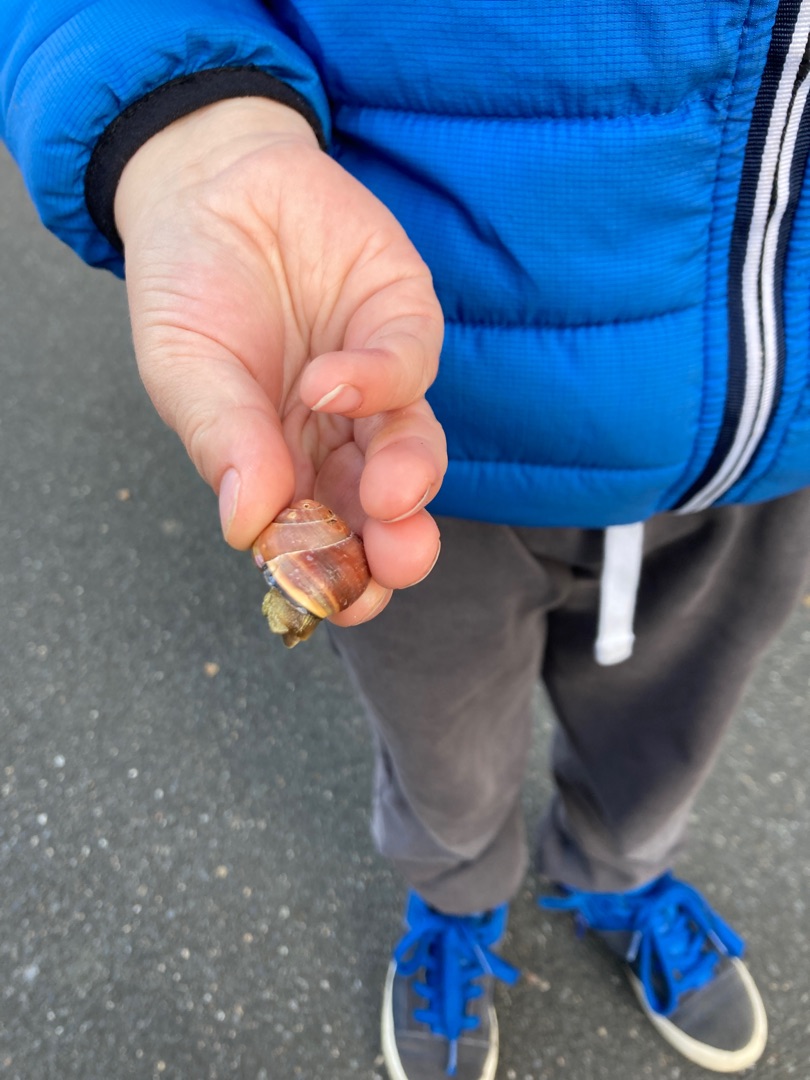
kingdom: Animalia
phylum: Mollusca
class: Gastropoda
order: Stylommatophora
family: Helicidae
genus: Cepaea
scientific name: Cepaea nemoralis
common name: Lundsnegl
